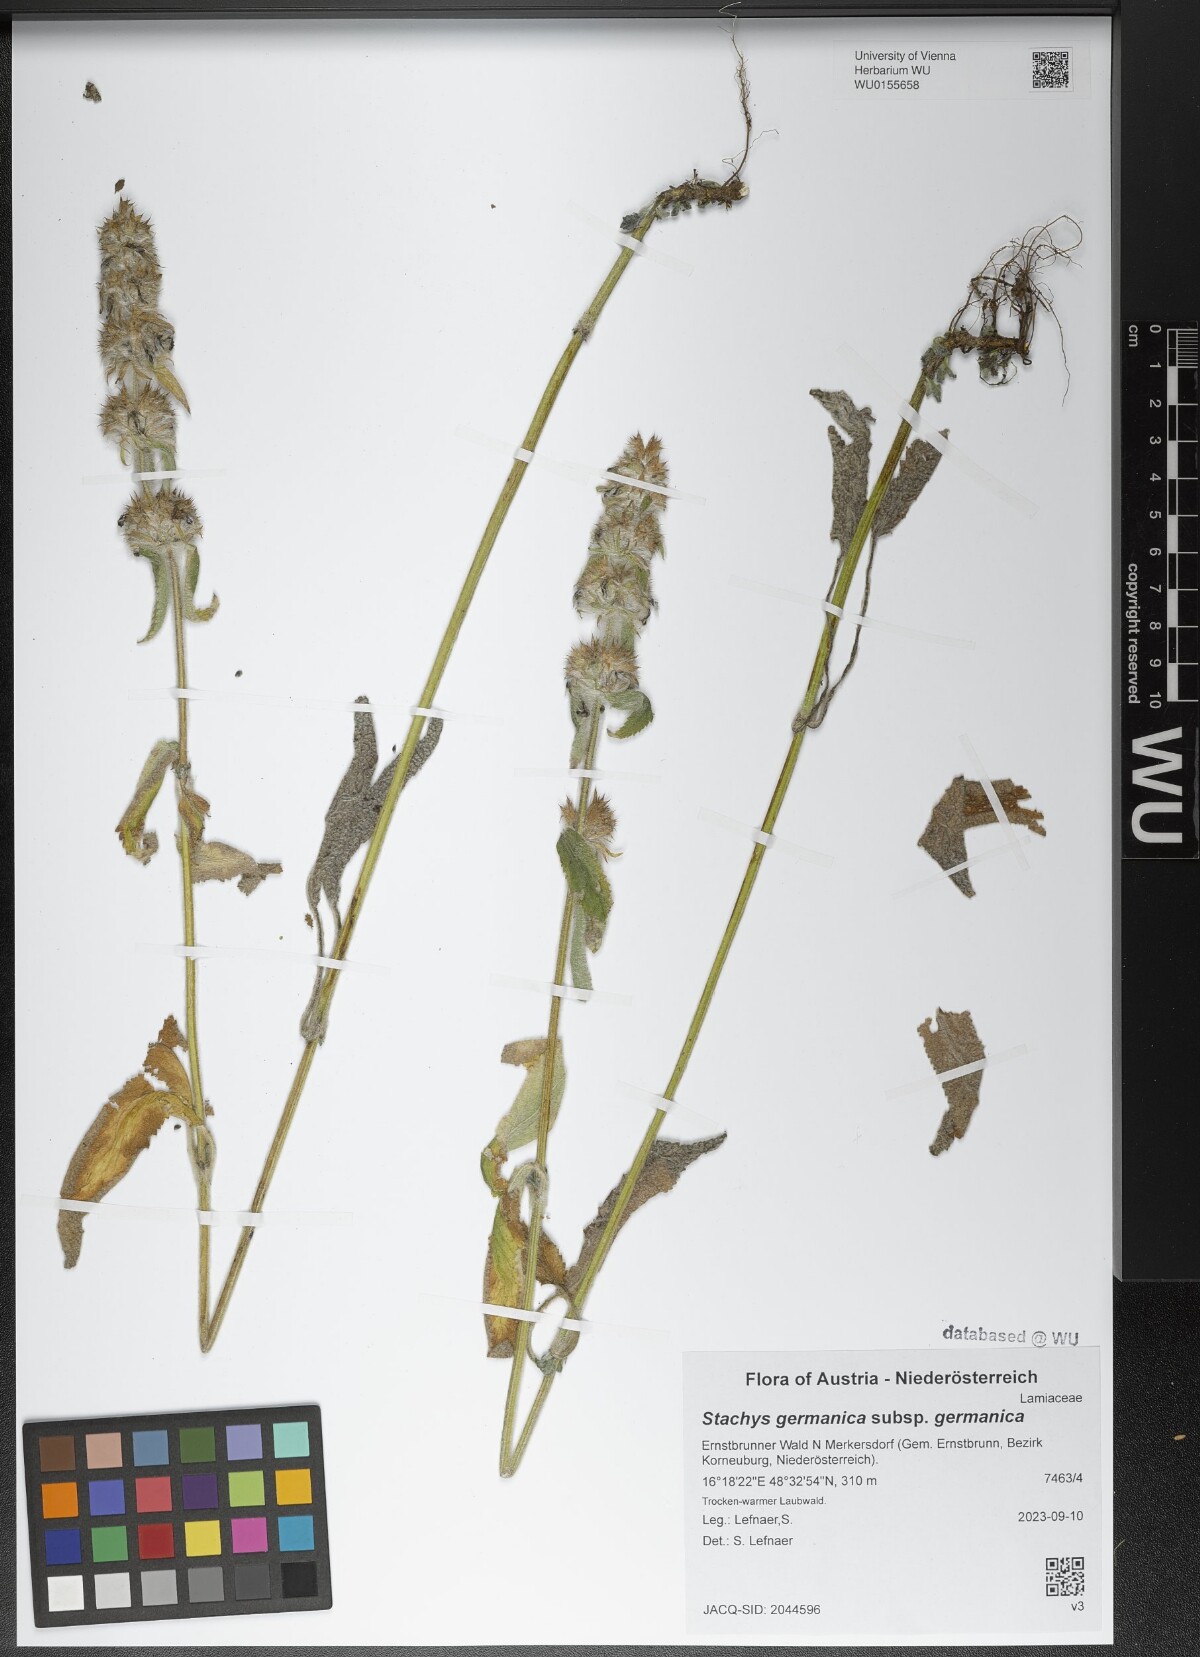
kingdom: Plantae
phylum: Tracheophyta
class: Magnoliopsida
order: Lamiales
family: Lamiaceae
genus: Stachys
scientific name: Stachys germanica
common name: Downy woundwort
